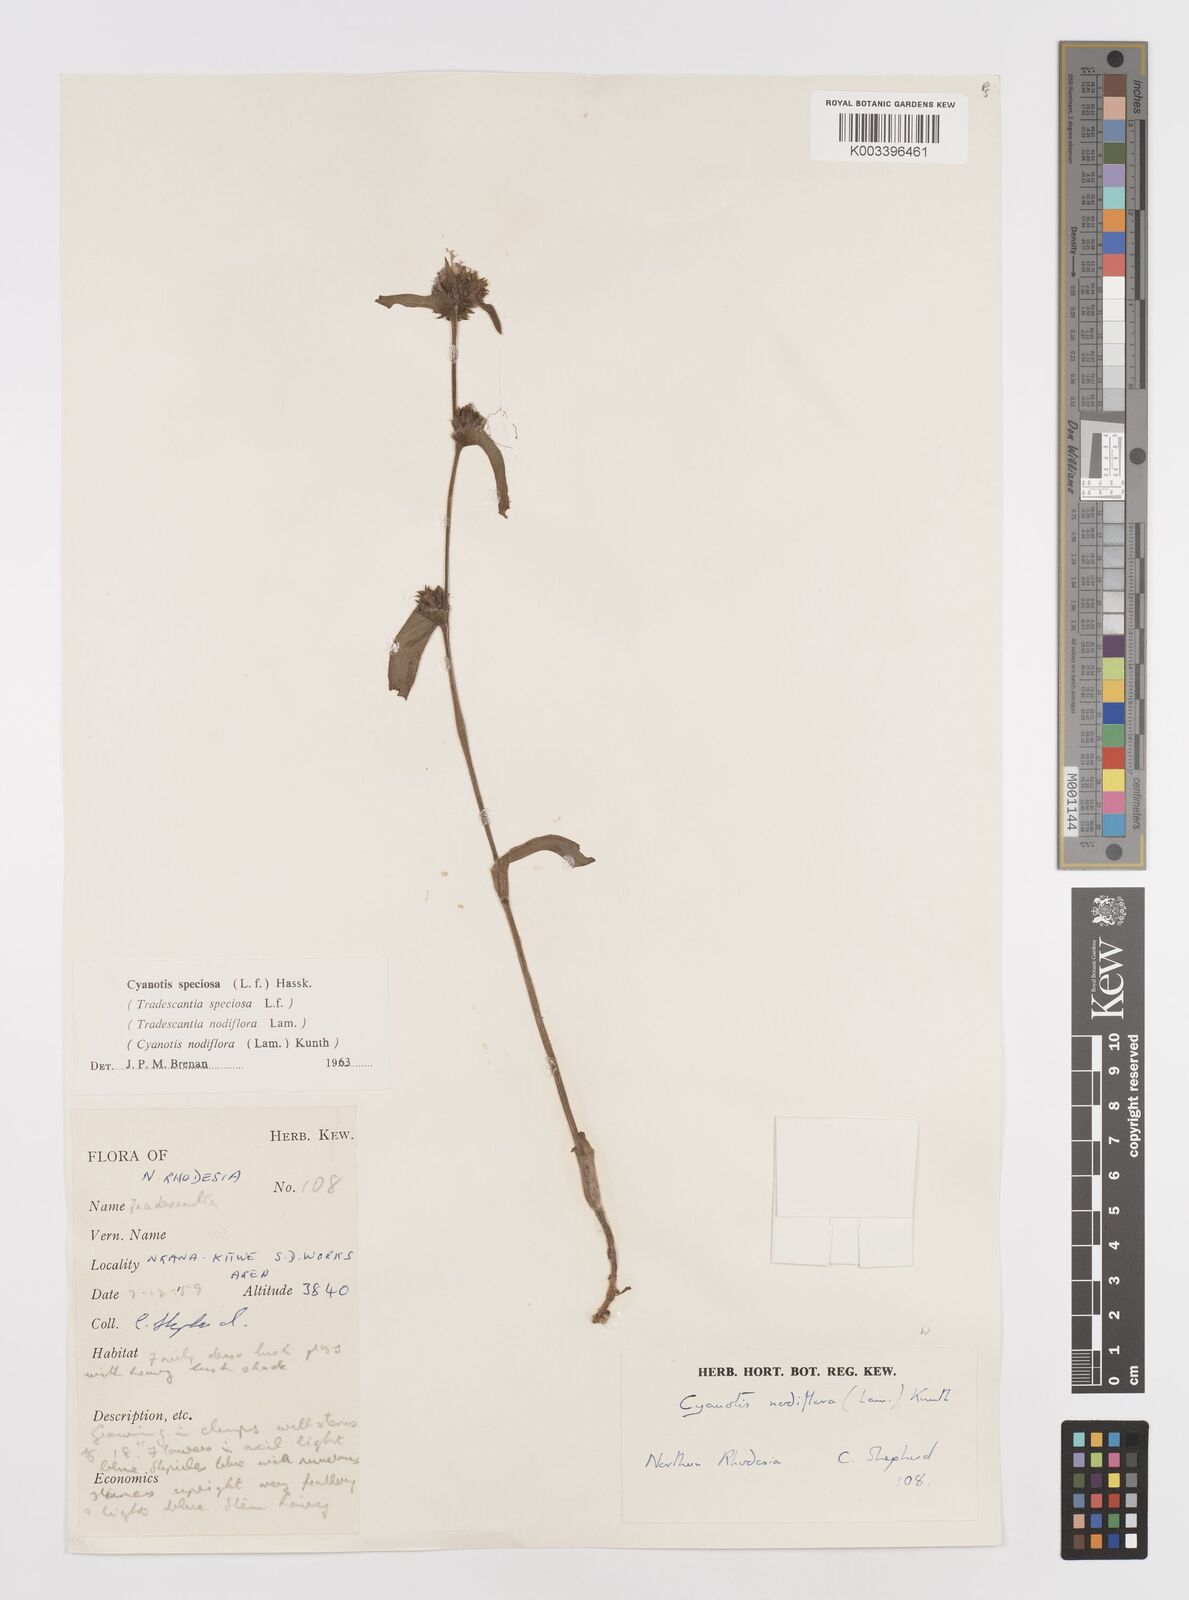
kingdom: Plantae
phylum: Tracheophyta
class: Liliopsida
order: Commelinales
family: Commelinaceae
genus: Cyanotis
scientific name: Cyanotis speciosa
